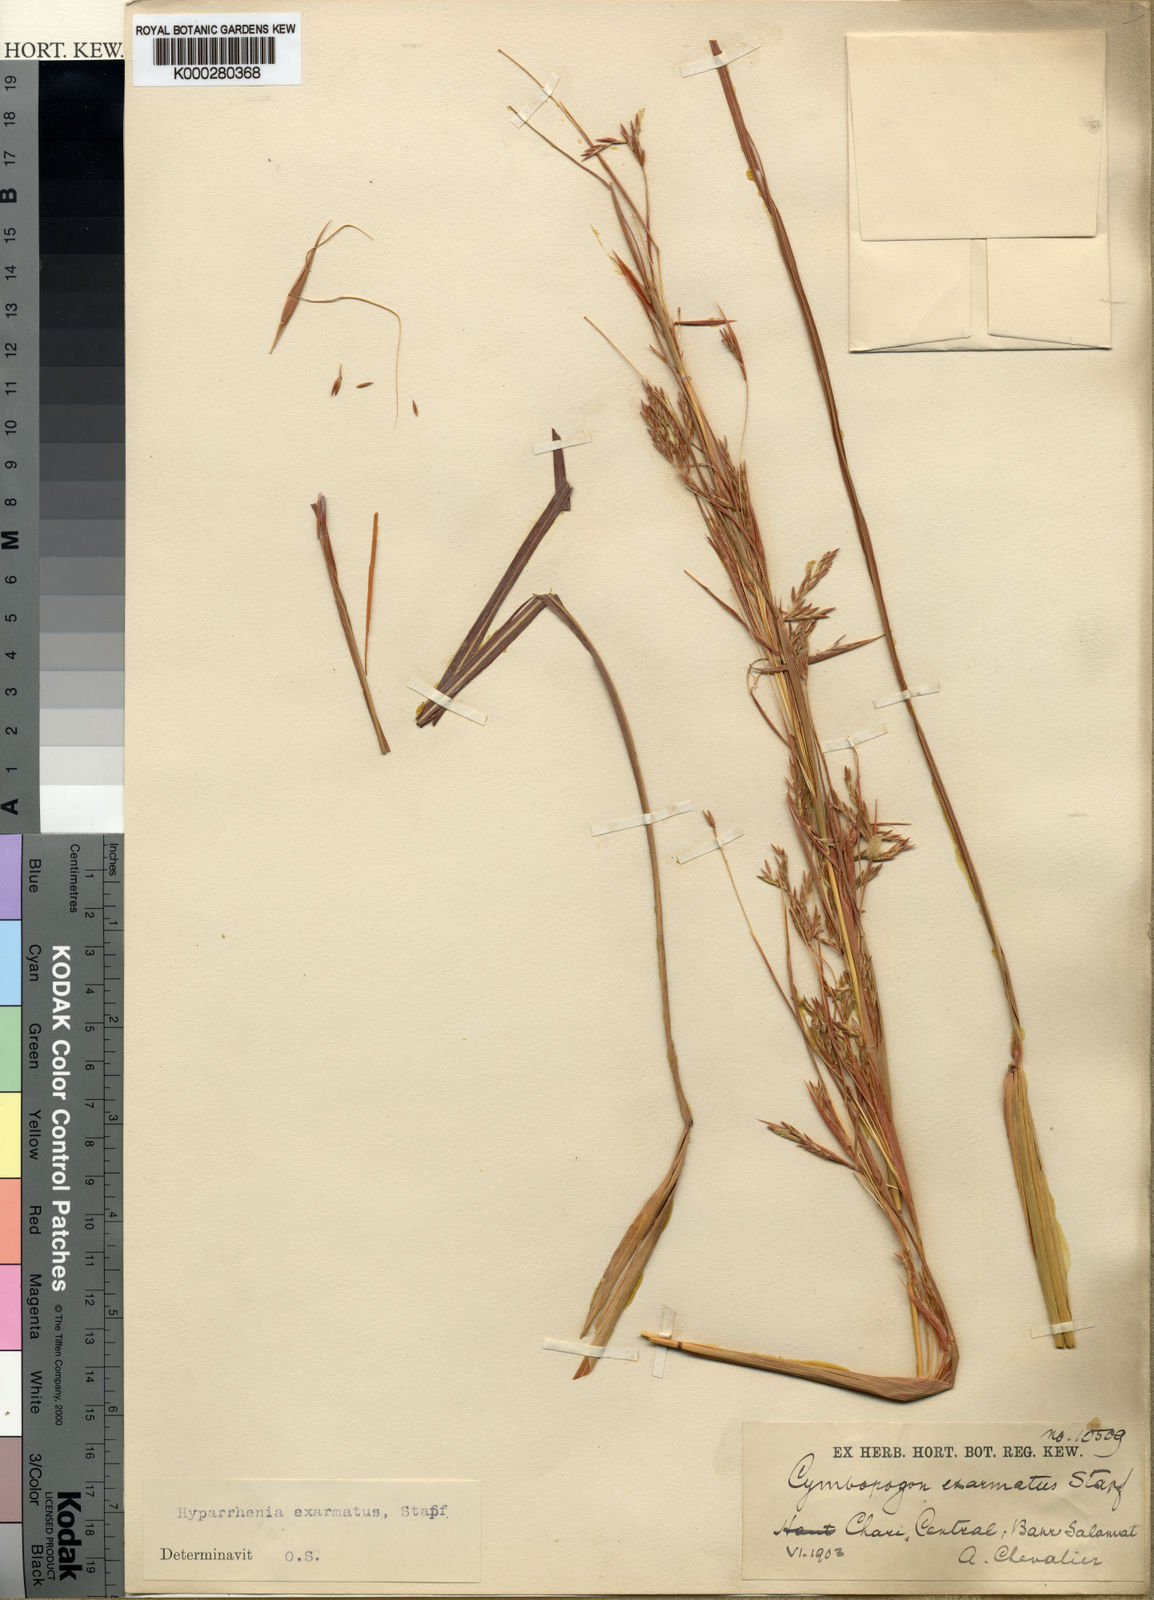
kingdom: Plantae
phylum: Tracheophyta
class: Liliopsida
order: Poales
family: Poaceae
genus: Hyparrhenia
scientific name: Hyparrhenia exarmata
